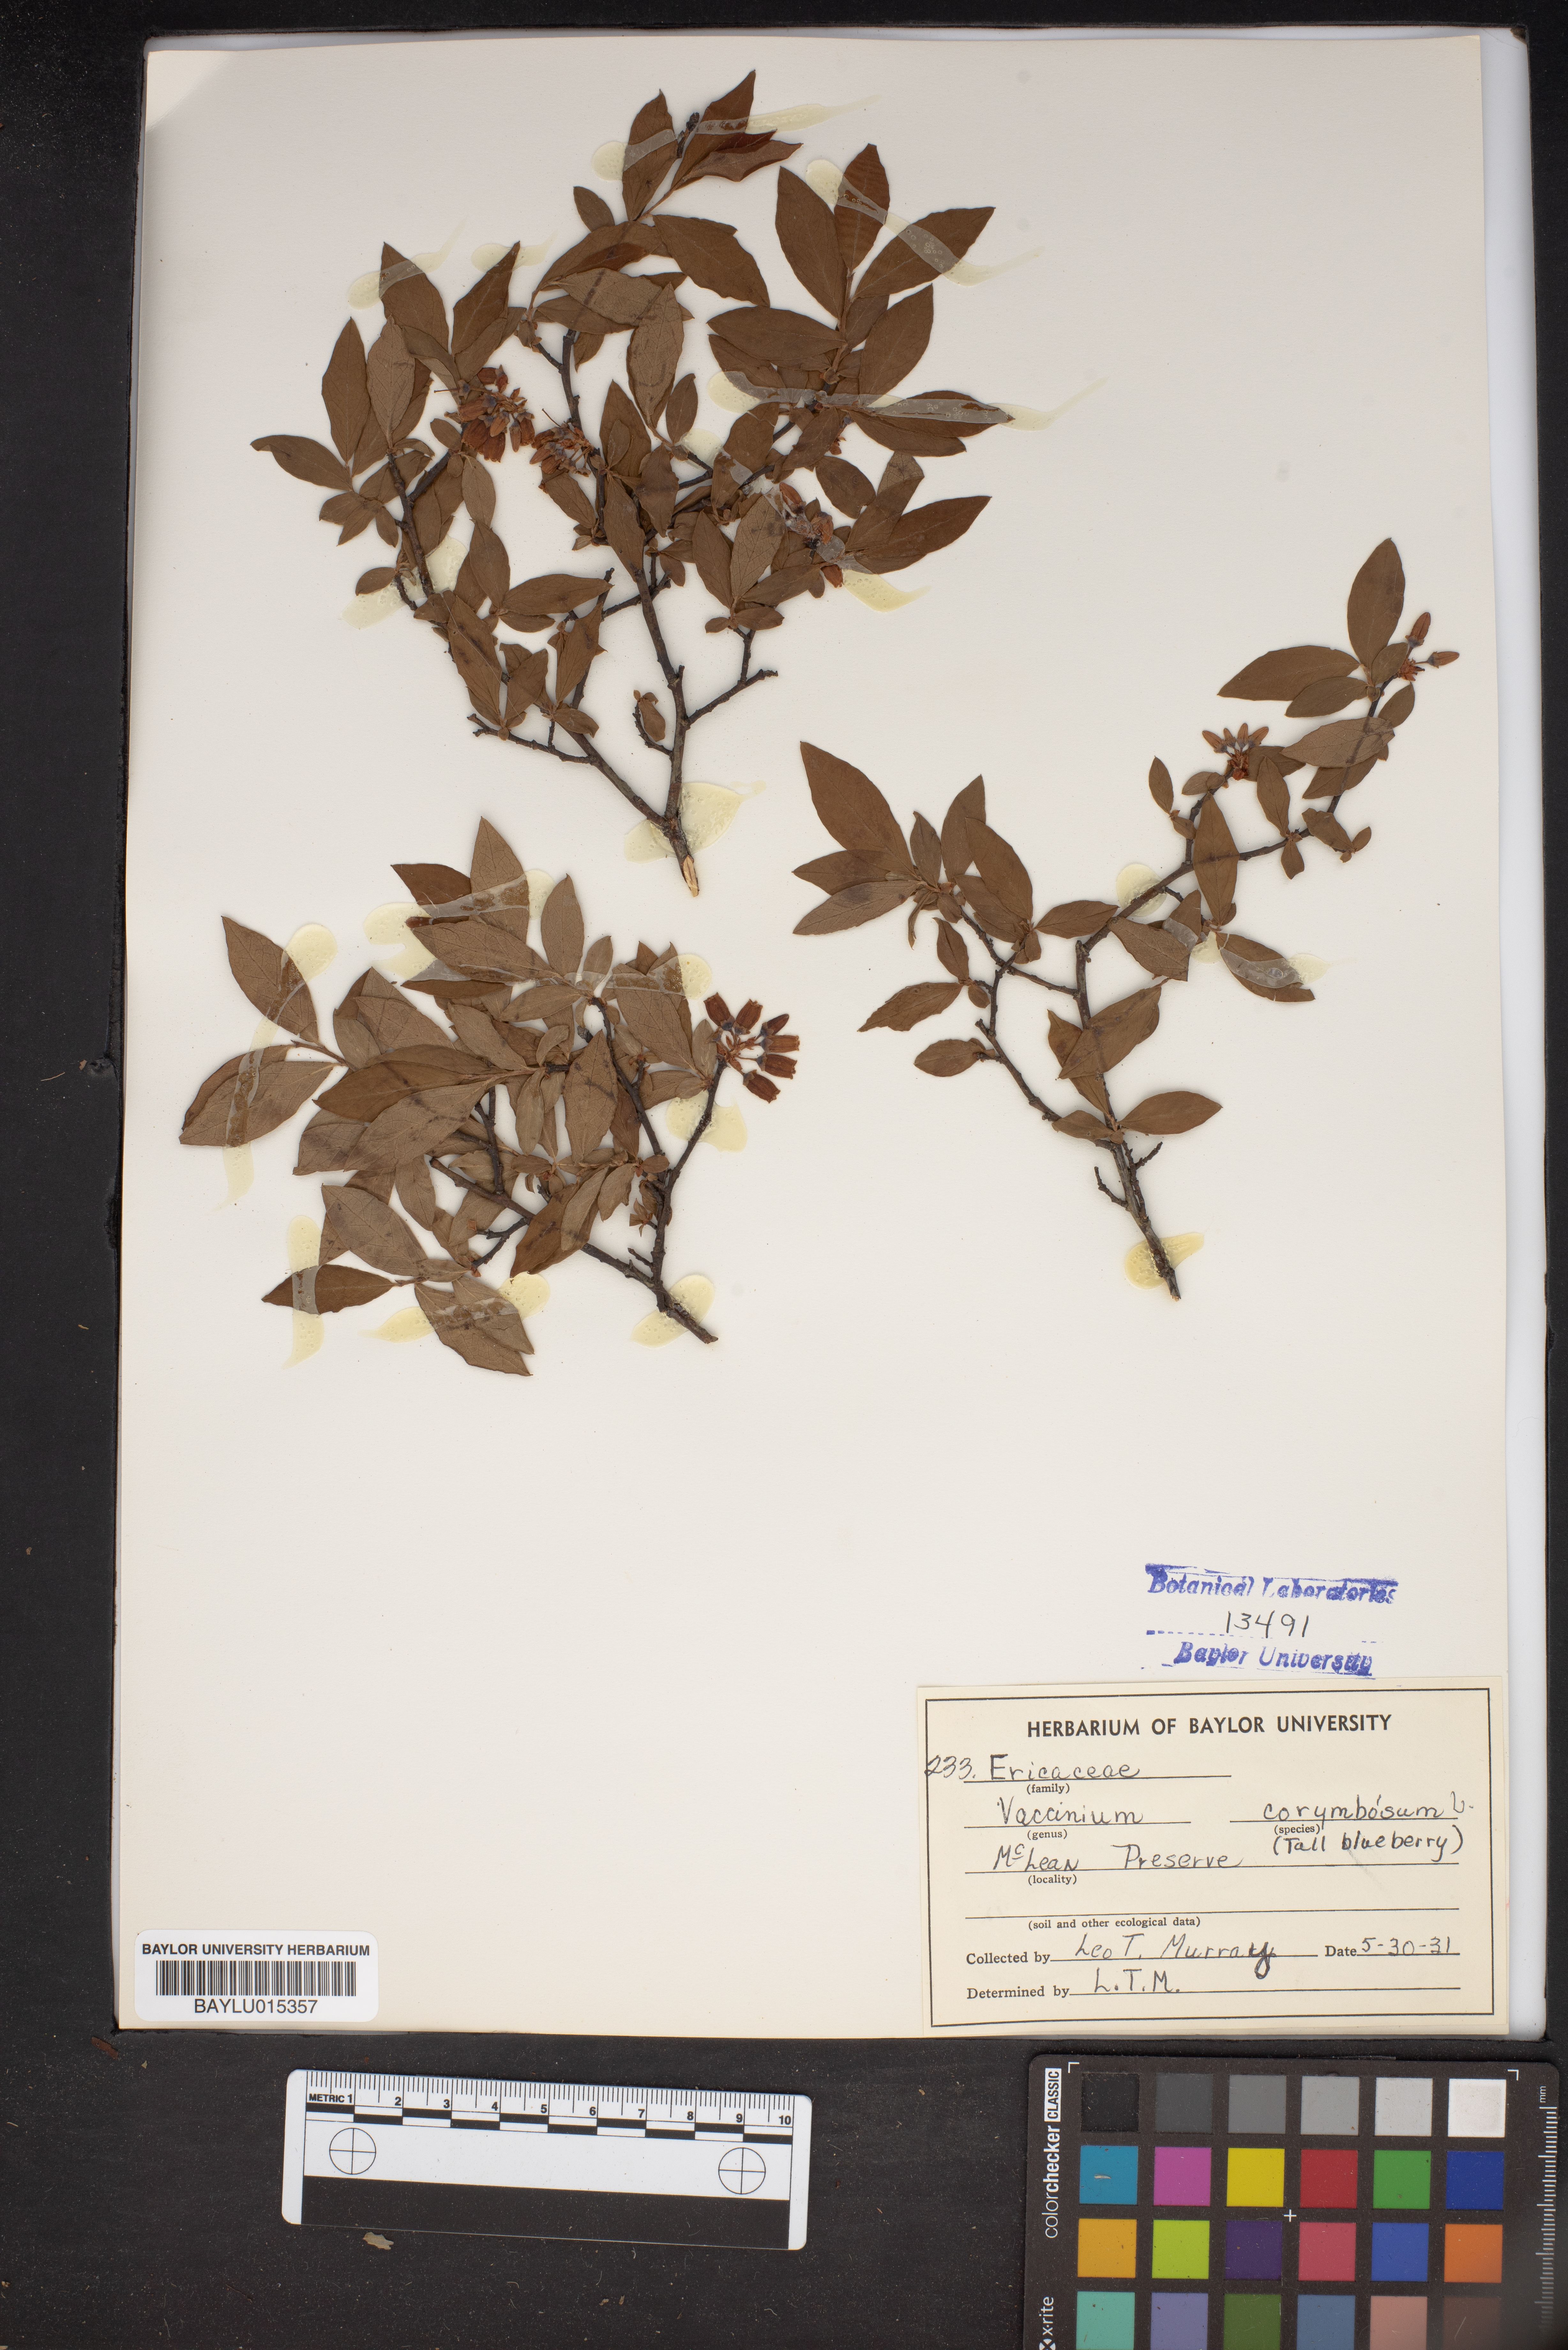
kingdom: Plantae
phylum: Tracheophyta
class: Magnoliopsida
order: Ericales
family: Ericaceae
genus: Vaccinium
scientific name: Vaccinium corymbosum
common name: Blueberry
